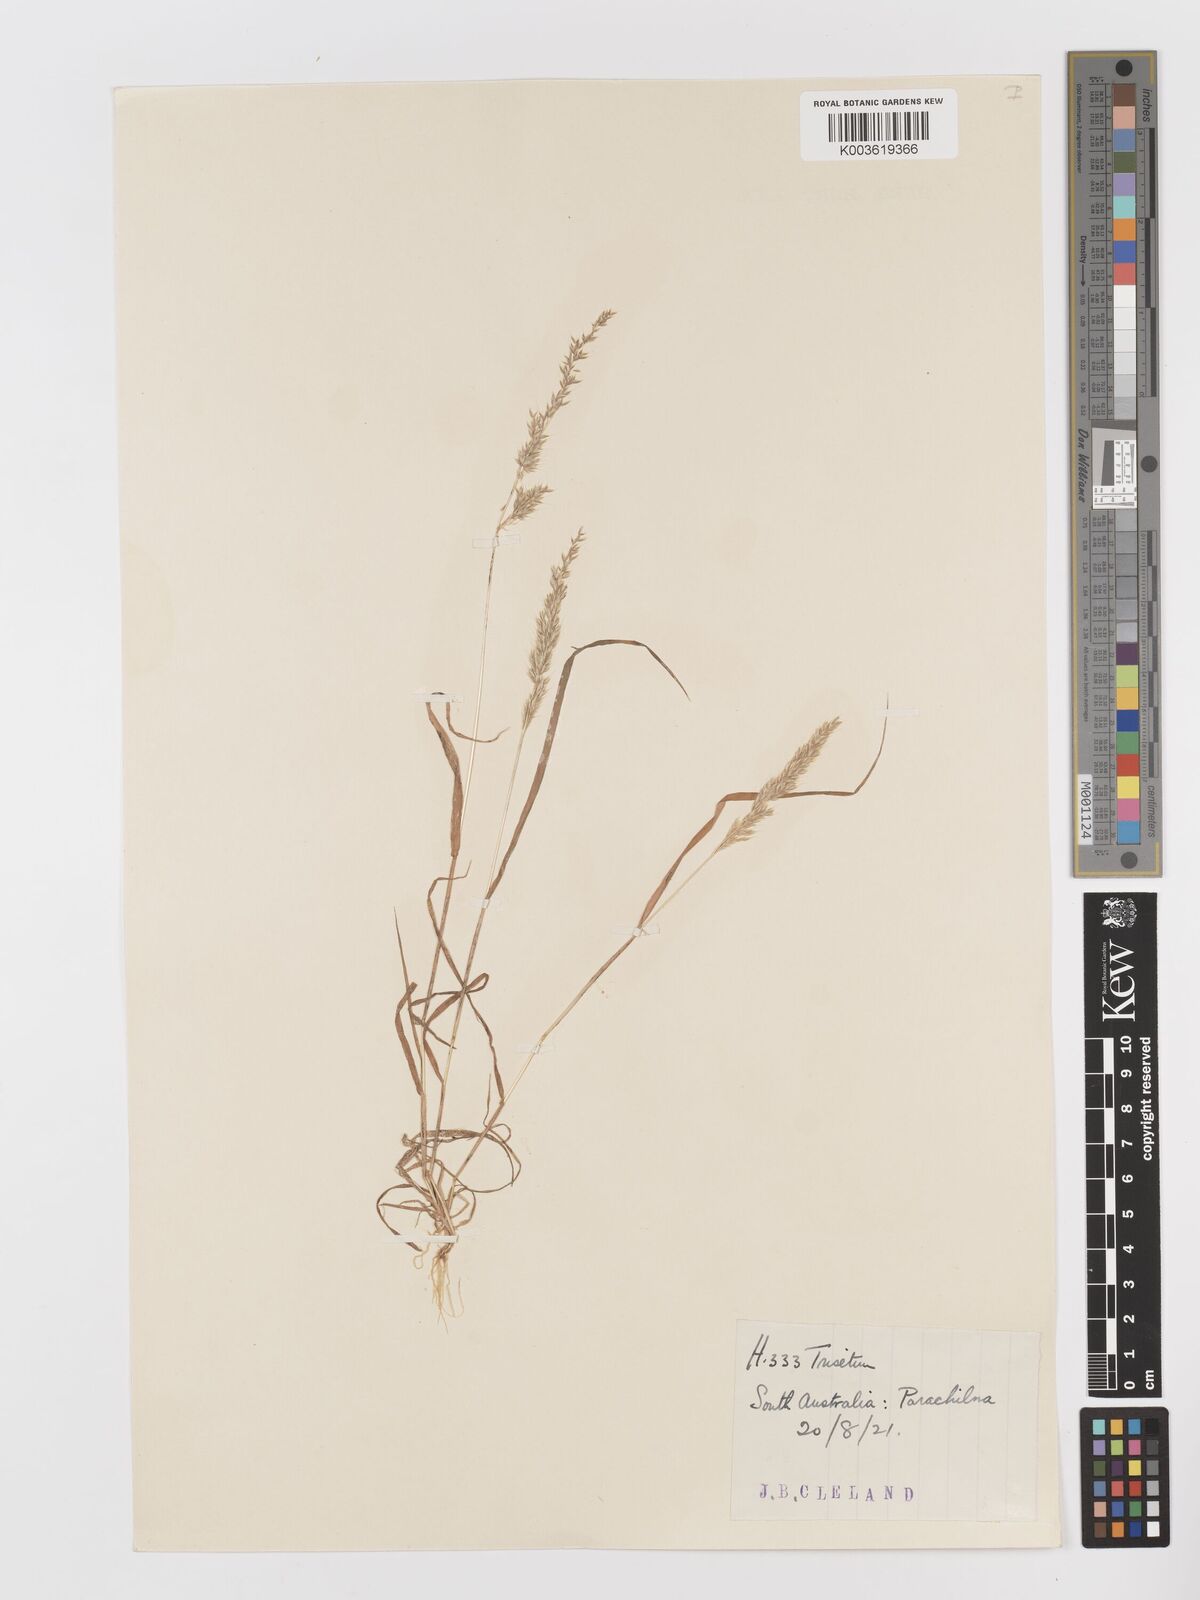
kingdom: Plantae
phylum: Tracheophyta
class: Liliopsida
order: Poales
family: Poaceae
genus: Rostraria
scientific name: Rostraria pumila
